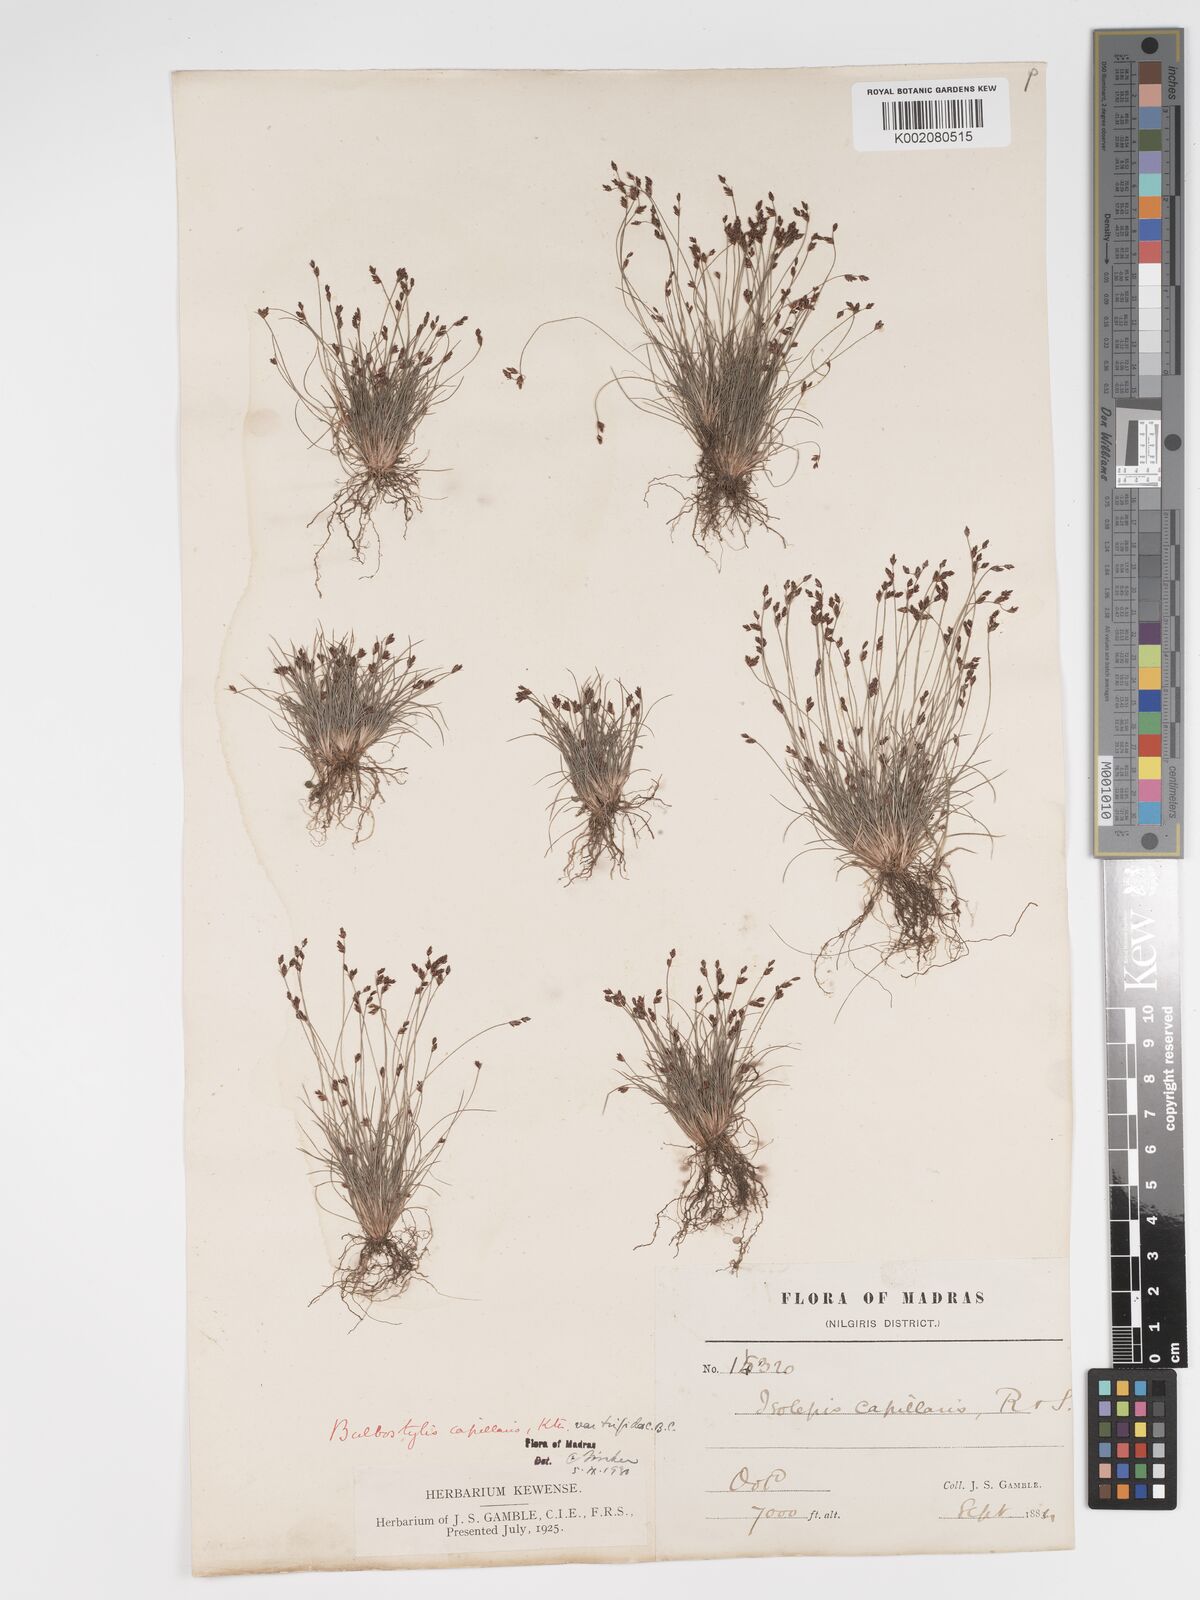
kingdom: Plantae
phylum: Tracheophyta
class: Liliopsida
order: Poales
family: Cyperaceae
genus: Bulbostylis
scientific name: Bulbostylis capillaris
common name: Densetuft hairsedge
